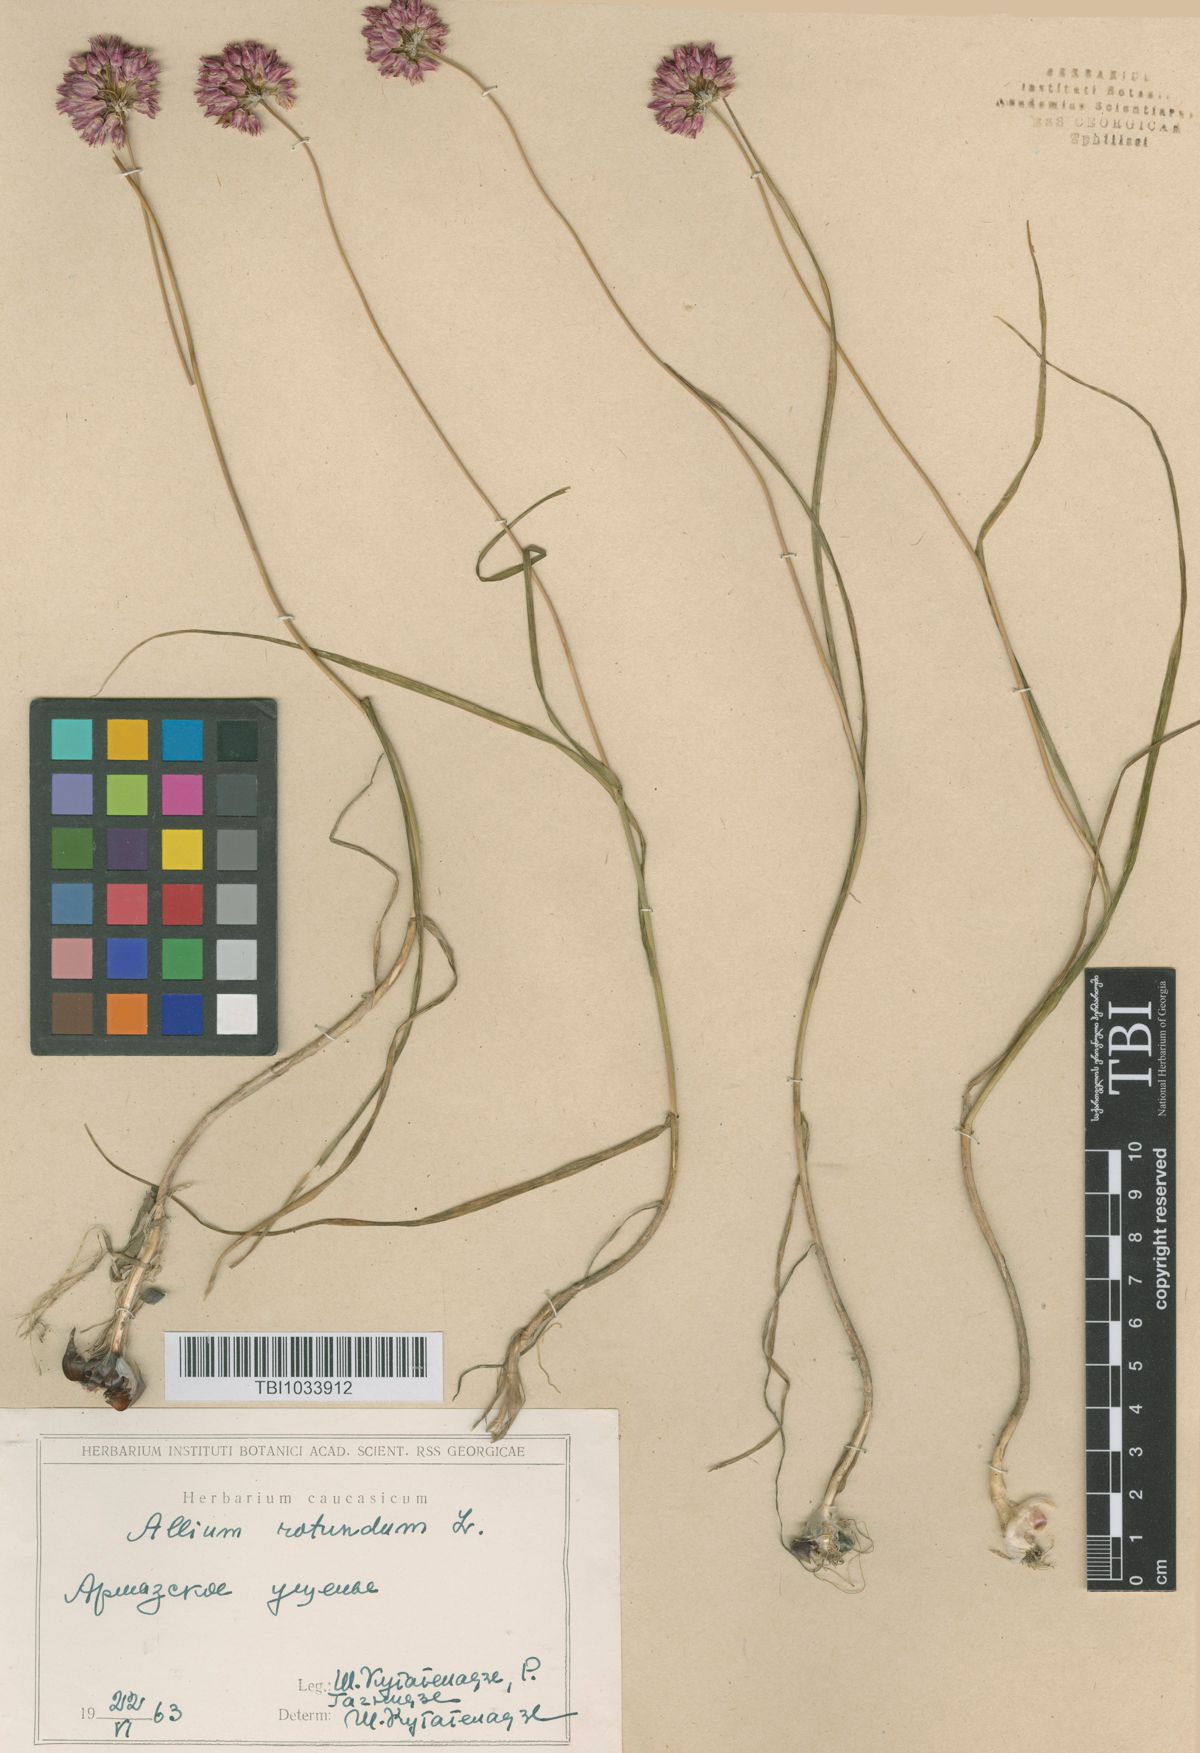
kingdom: Plantae
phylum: Tracheophyta
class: Liliopsida
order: Asparagales
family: Amaryllidaceae
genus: Allium
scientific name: Allium rotundum
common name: Sand leek
